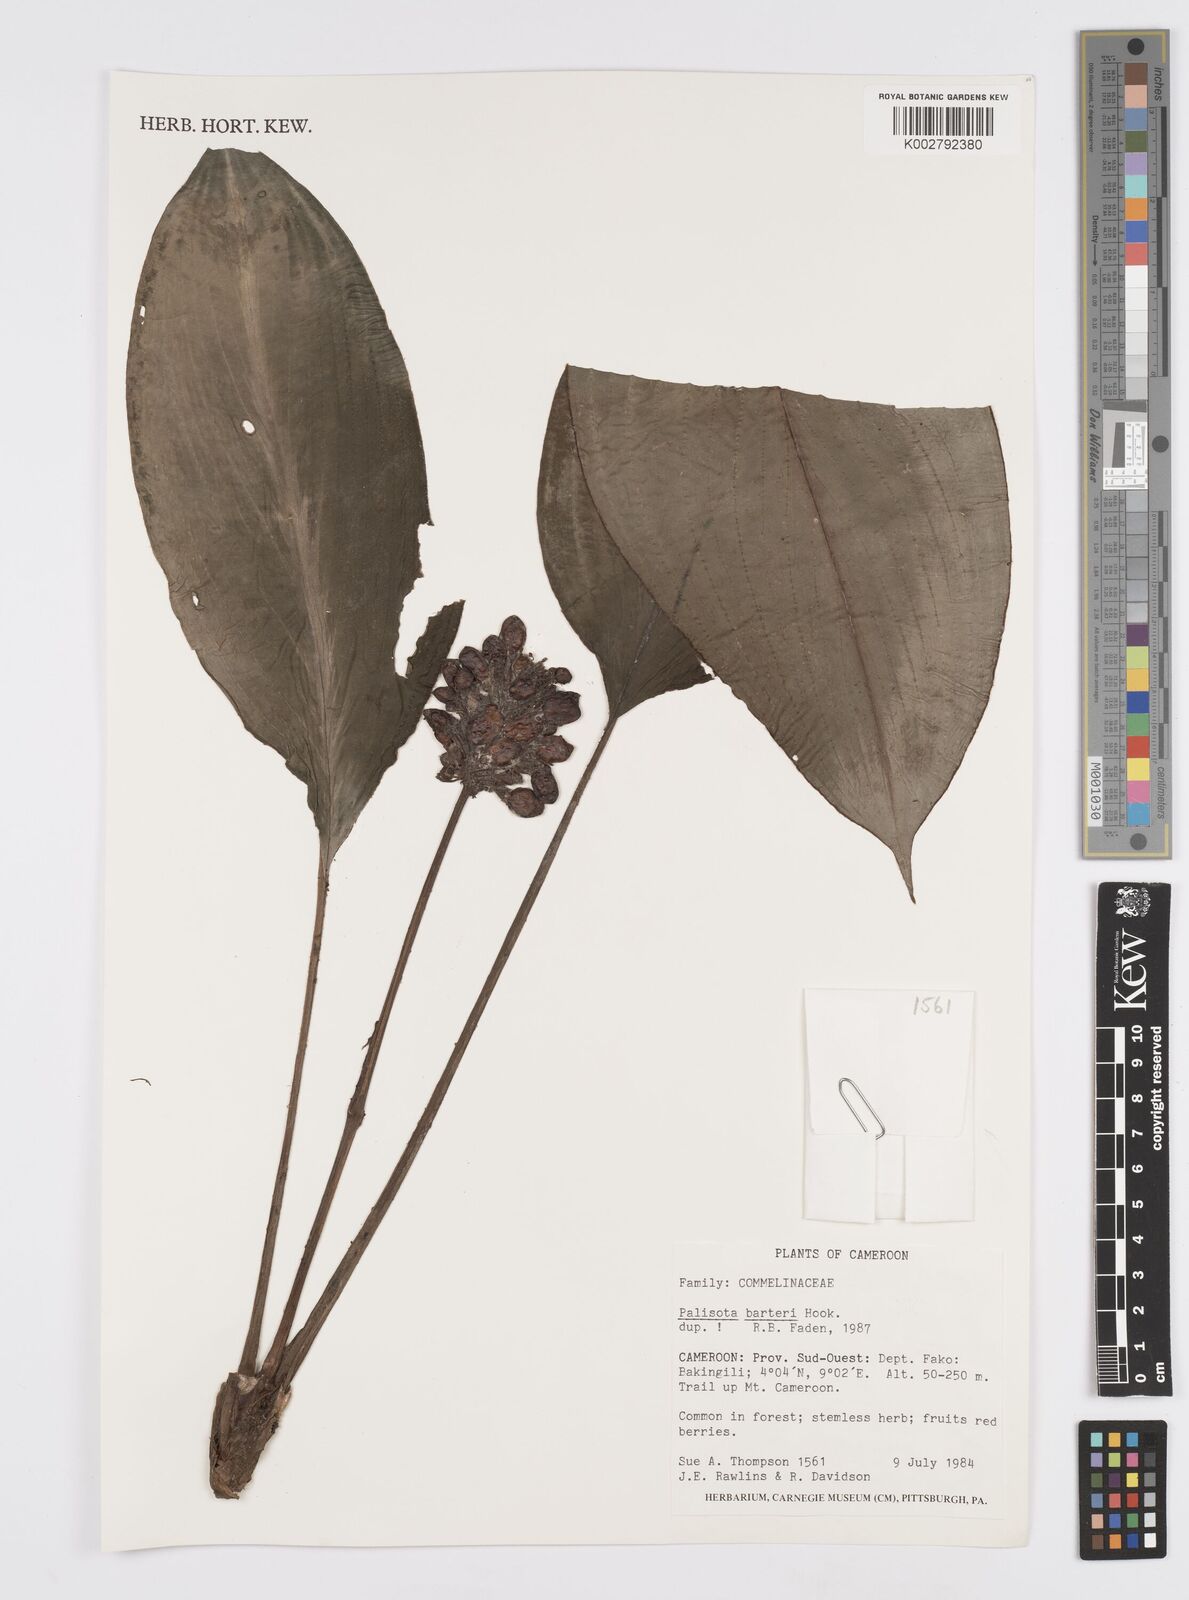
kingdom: Plantae
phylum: Tracheophyta
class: Liliopsida
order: Commelinales
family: Commelinaceae
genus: Palisota
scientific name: Palisota barteri
